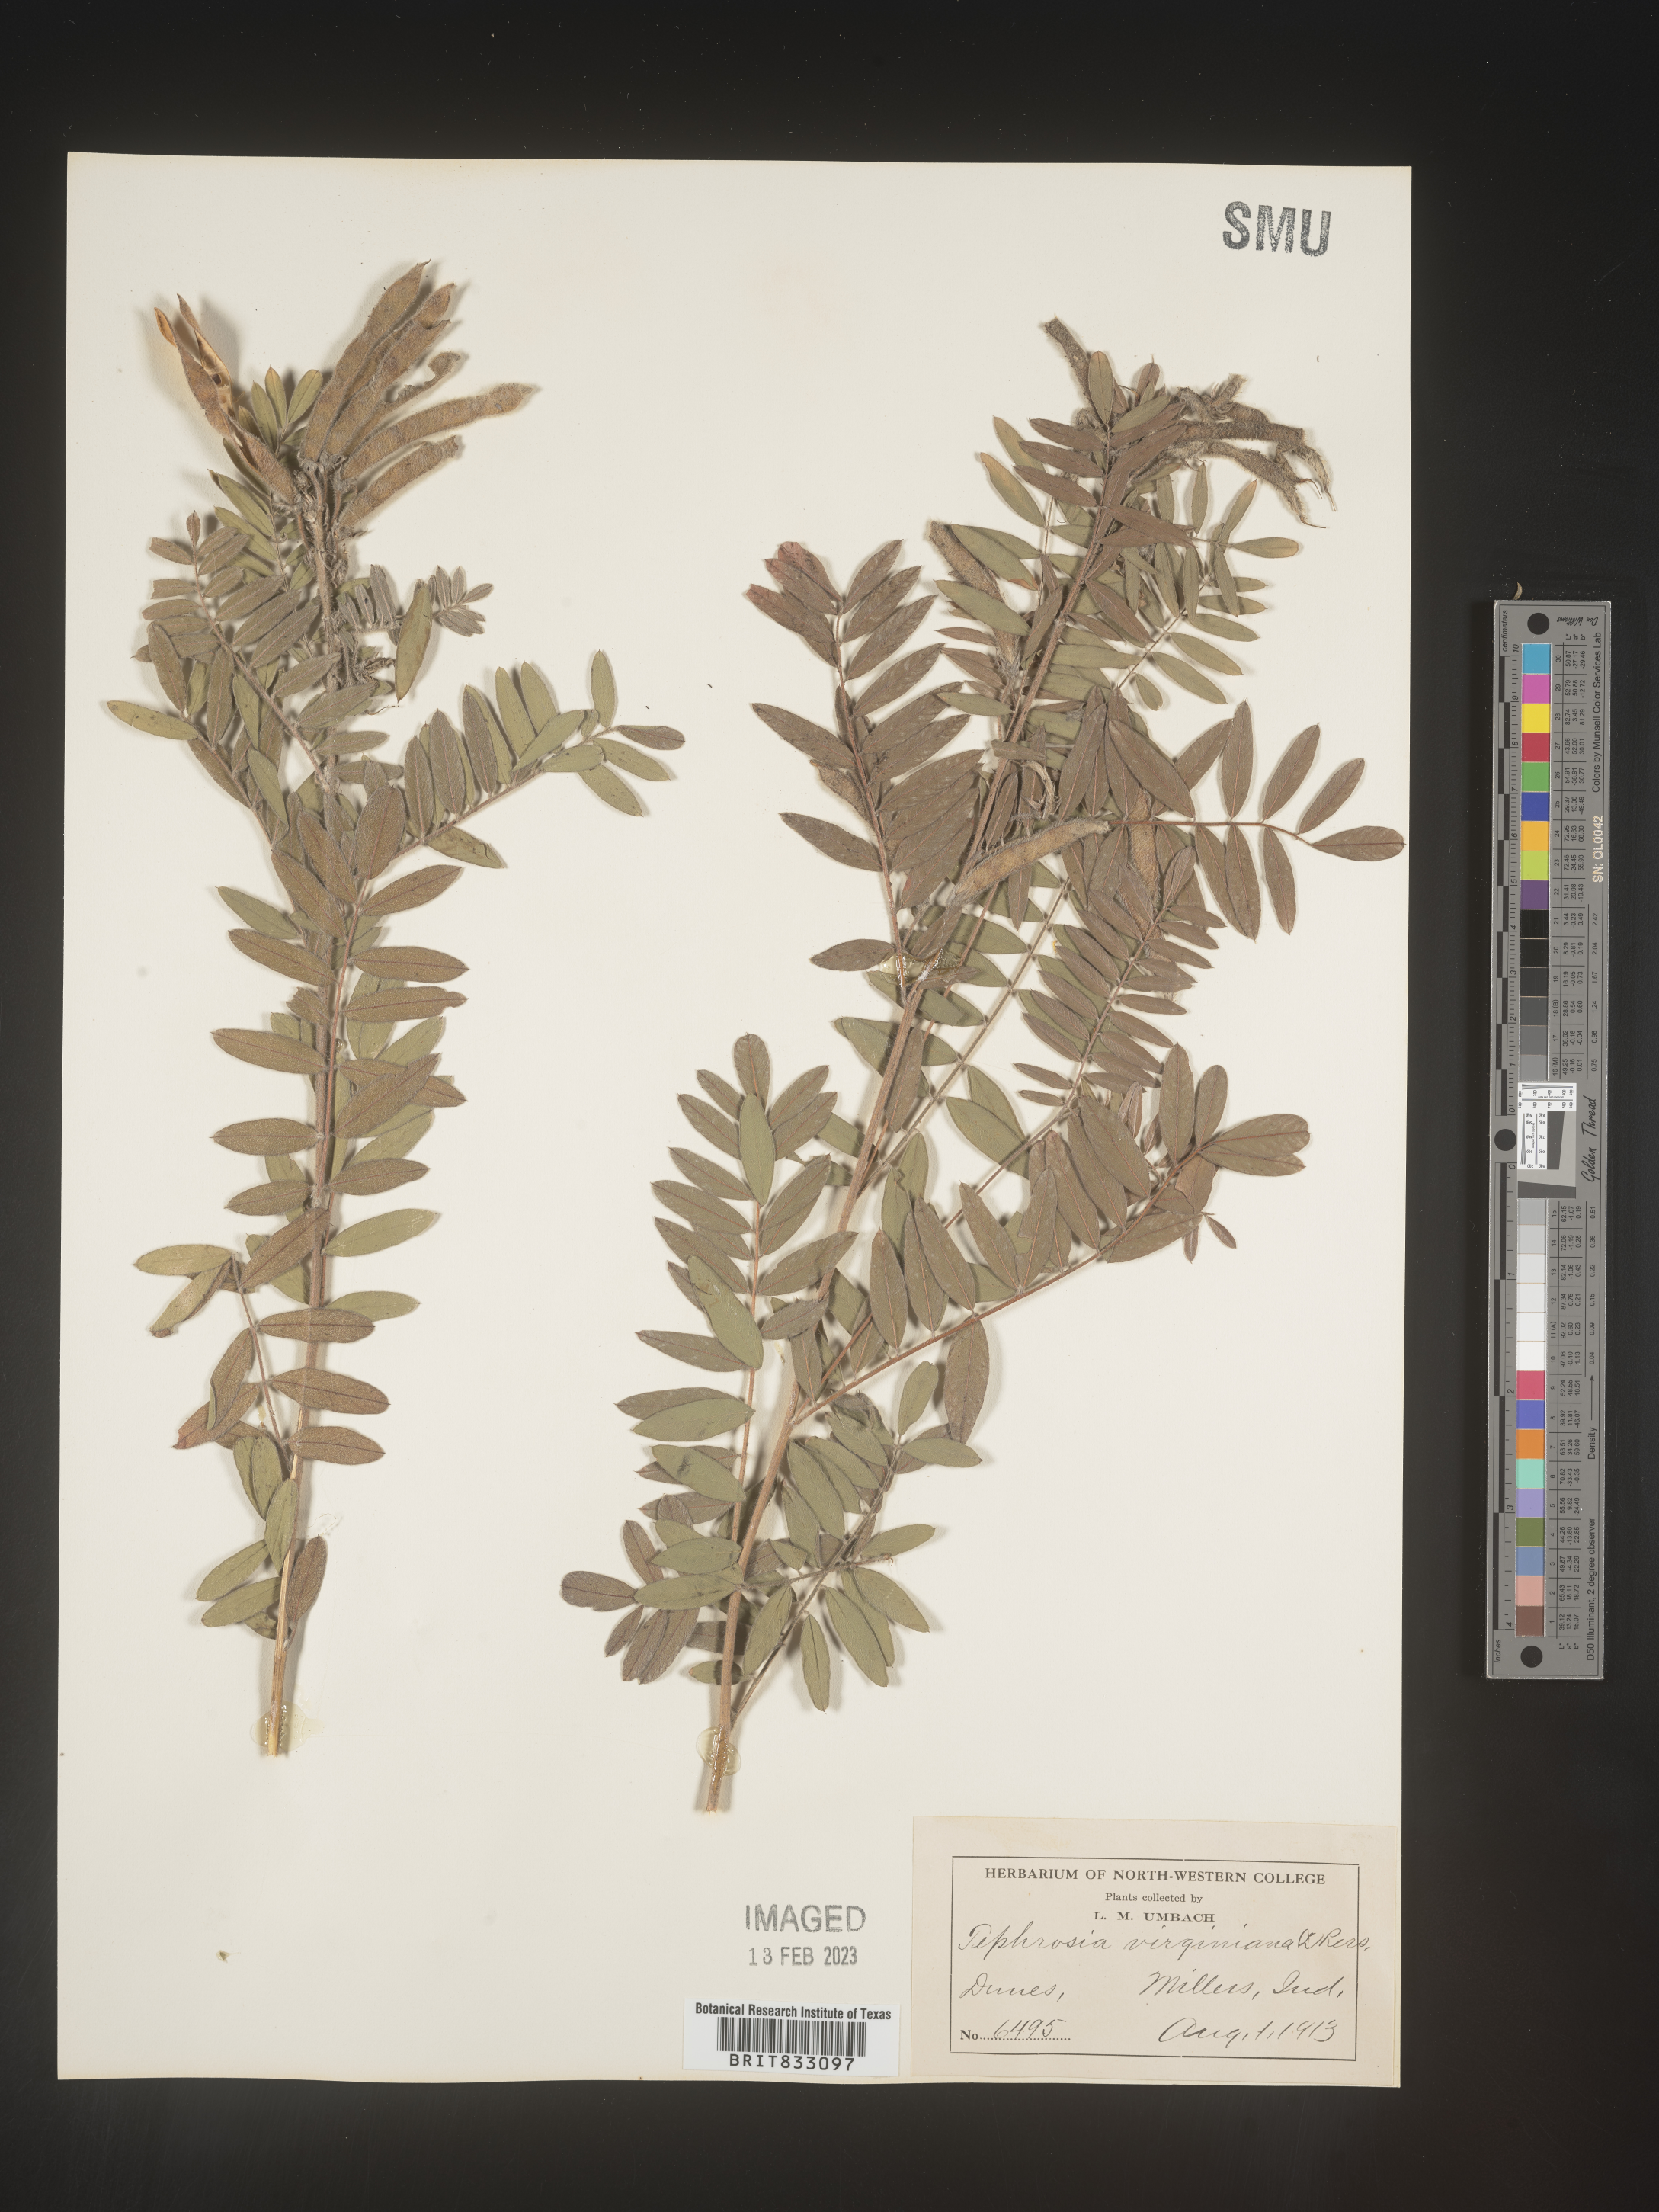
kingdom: Plantae
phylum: Tracheophyta
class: Magnoliopsida
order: Fabales
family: Fabaceae
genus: Tephrosia
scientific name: Tephrosia virginiana
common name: Rabbit-pea
